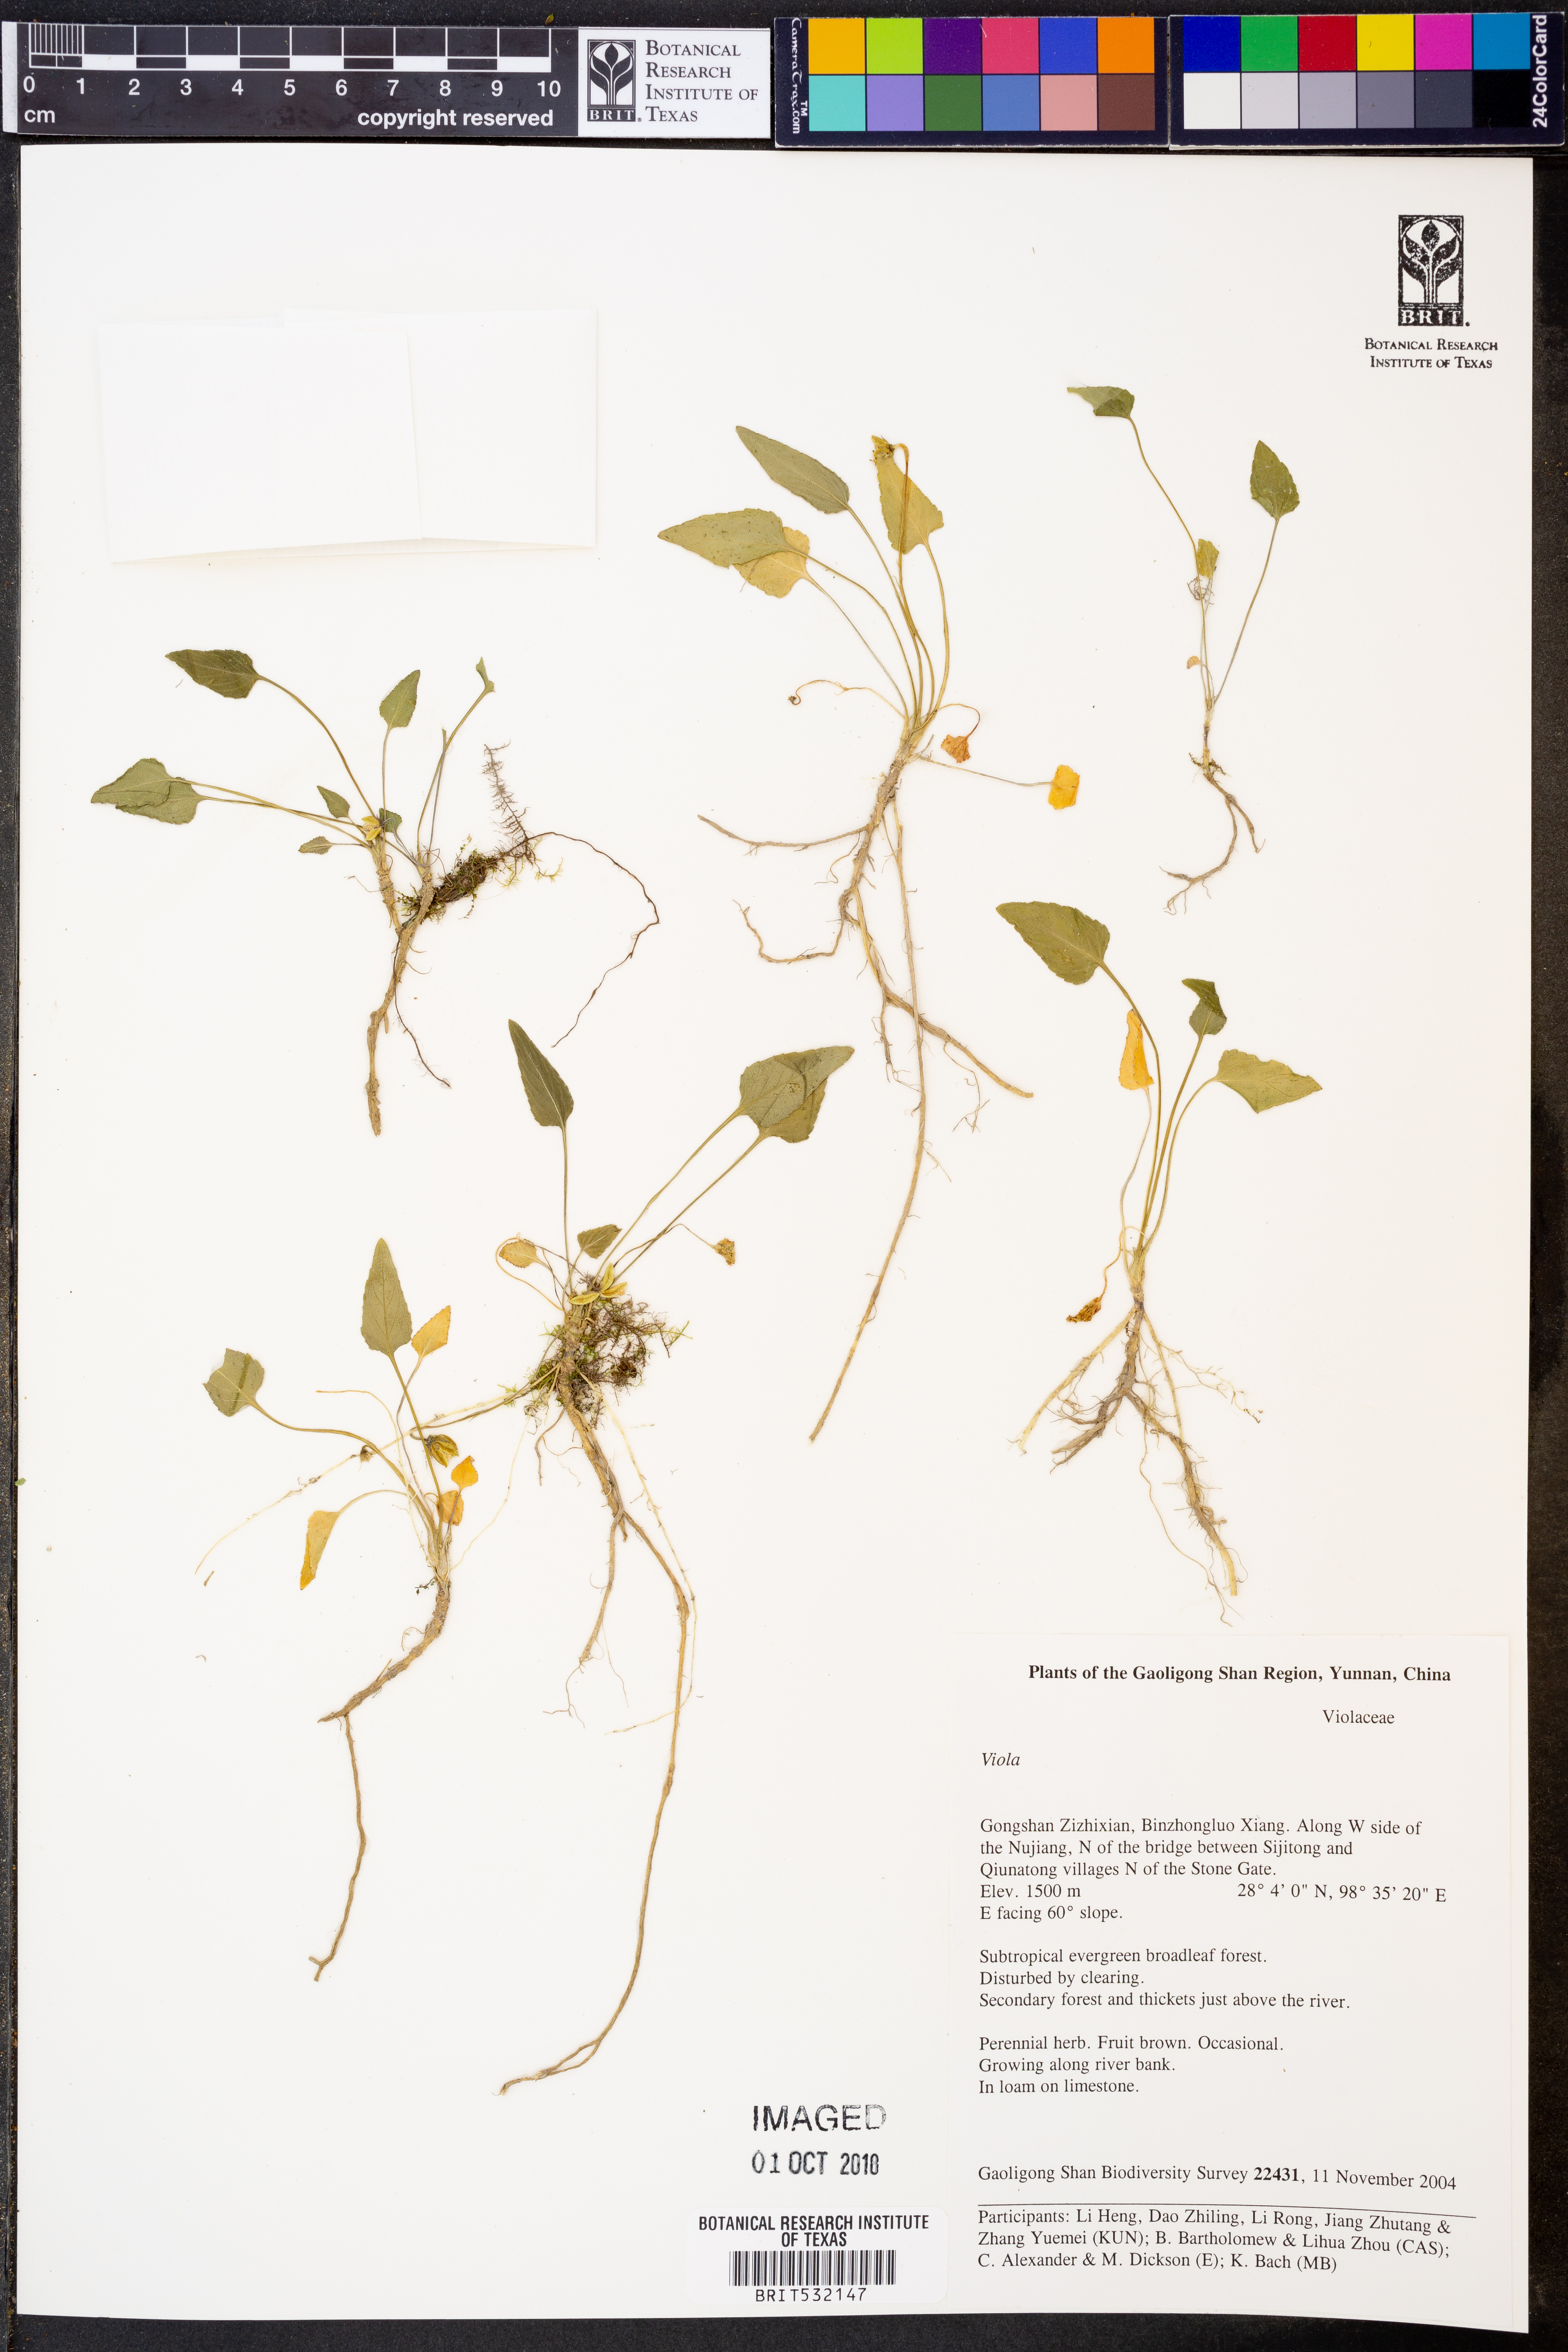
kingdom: Plantae
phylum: Tracheophyta
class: Magnoliopsida
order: Malpighiales
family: Violaceae
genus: Viola
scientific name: Viola
